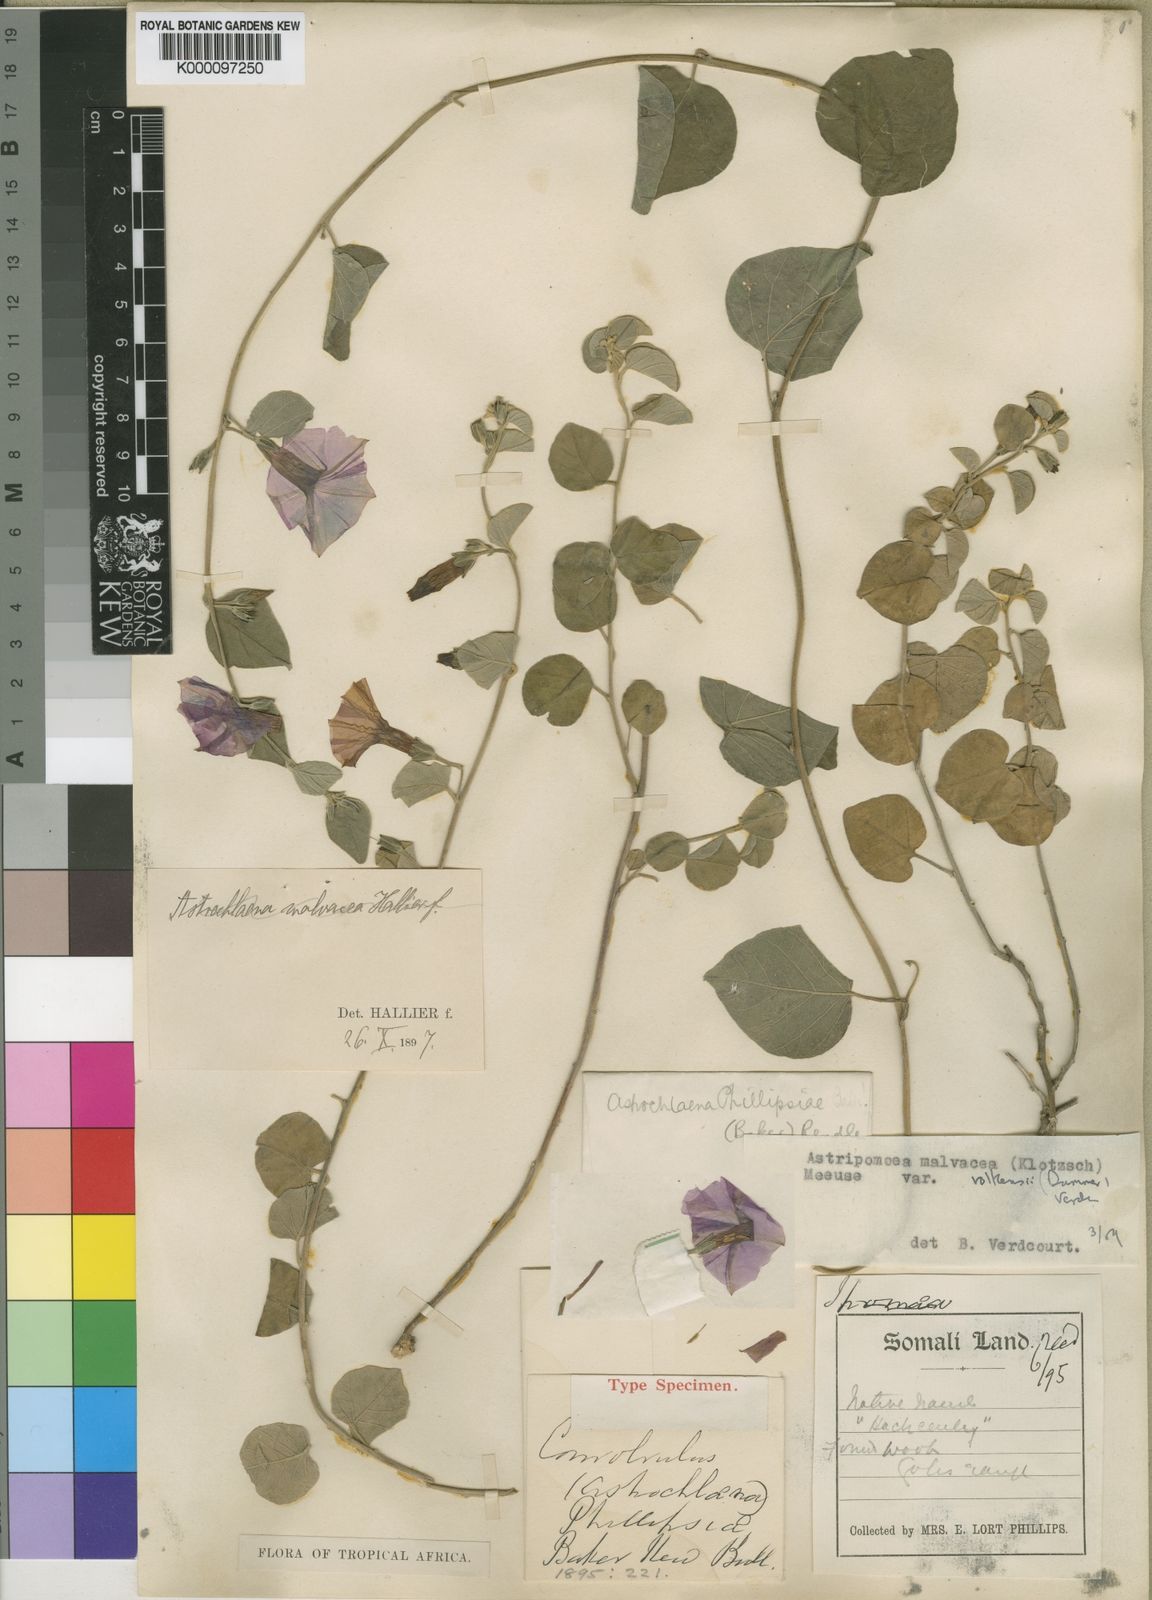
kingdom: Plantae
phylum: Tracheophyta
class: Magnoliopsida
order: Solanales
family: Convolvulaceae
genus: Astripomoea
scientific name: Astripomoea malvacea
